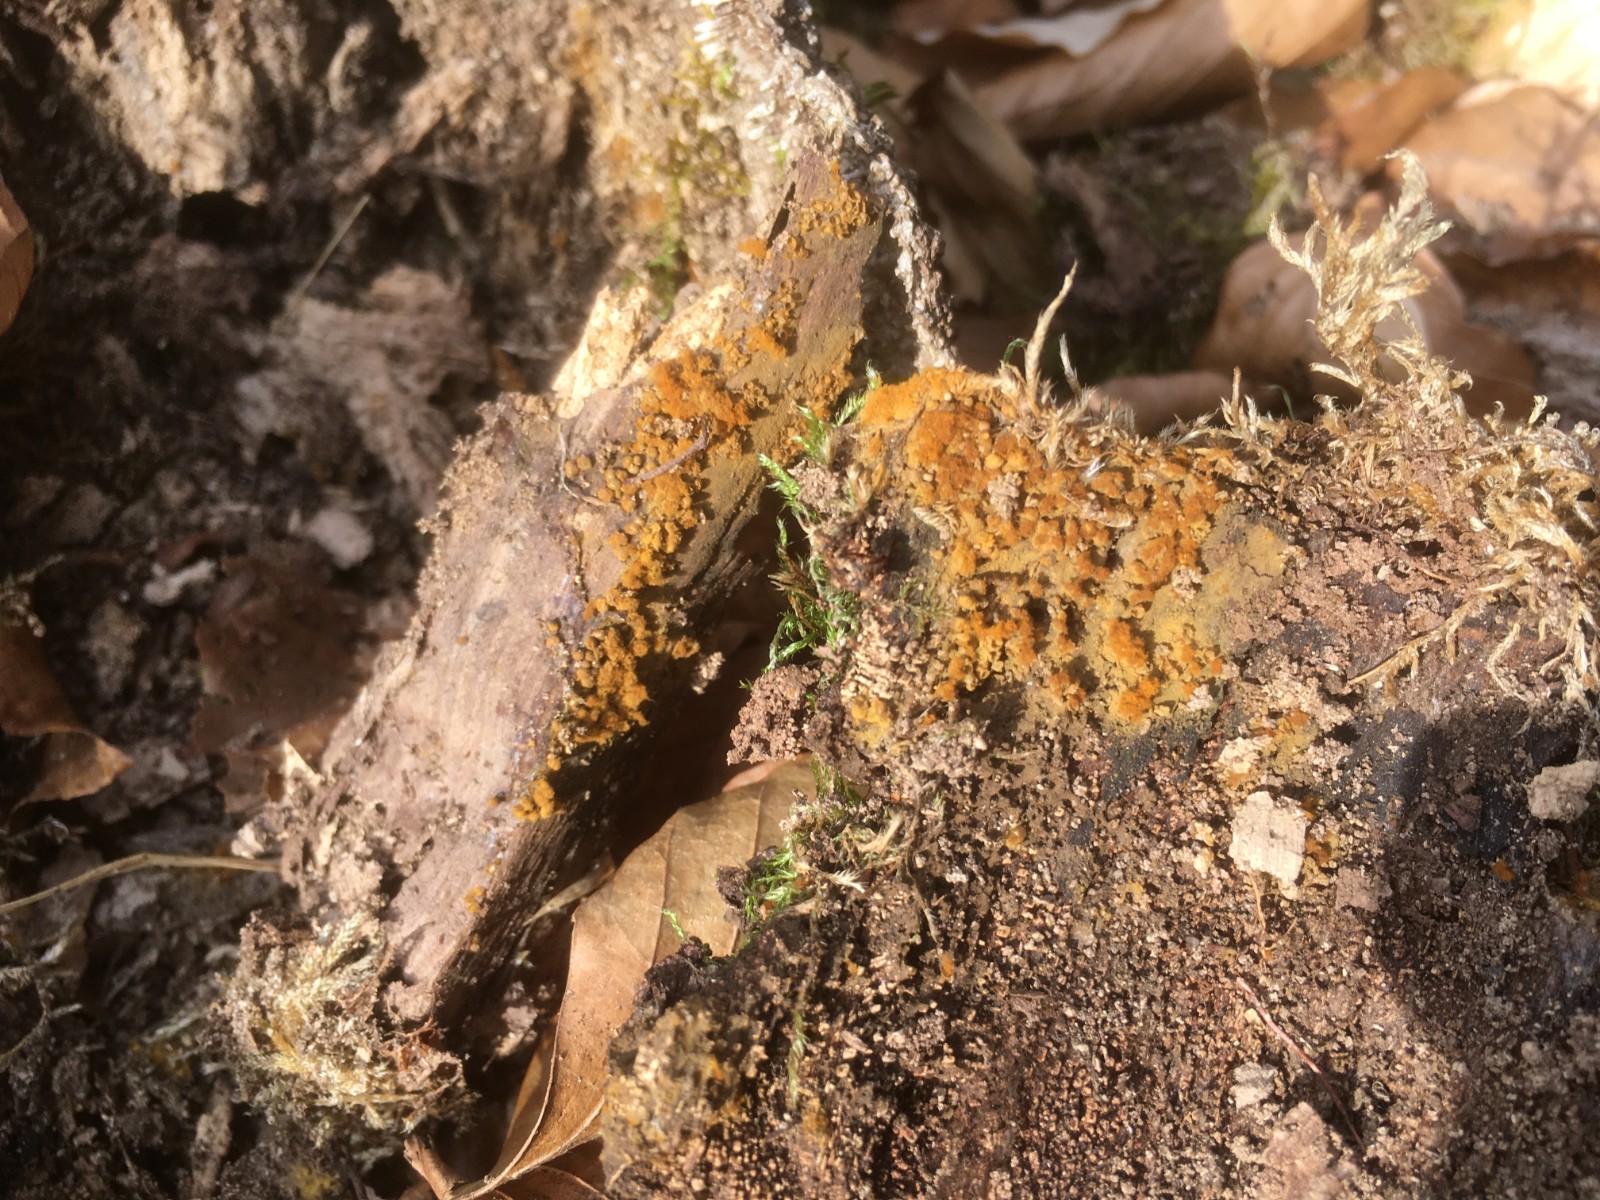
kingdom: Protozoa
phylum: Mycetozoa
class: Myxomycetes
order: Trichiales
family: Trichiaceae
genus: Trichia
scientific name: Trichia varia
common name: foranderlig hårbold
